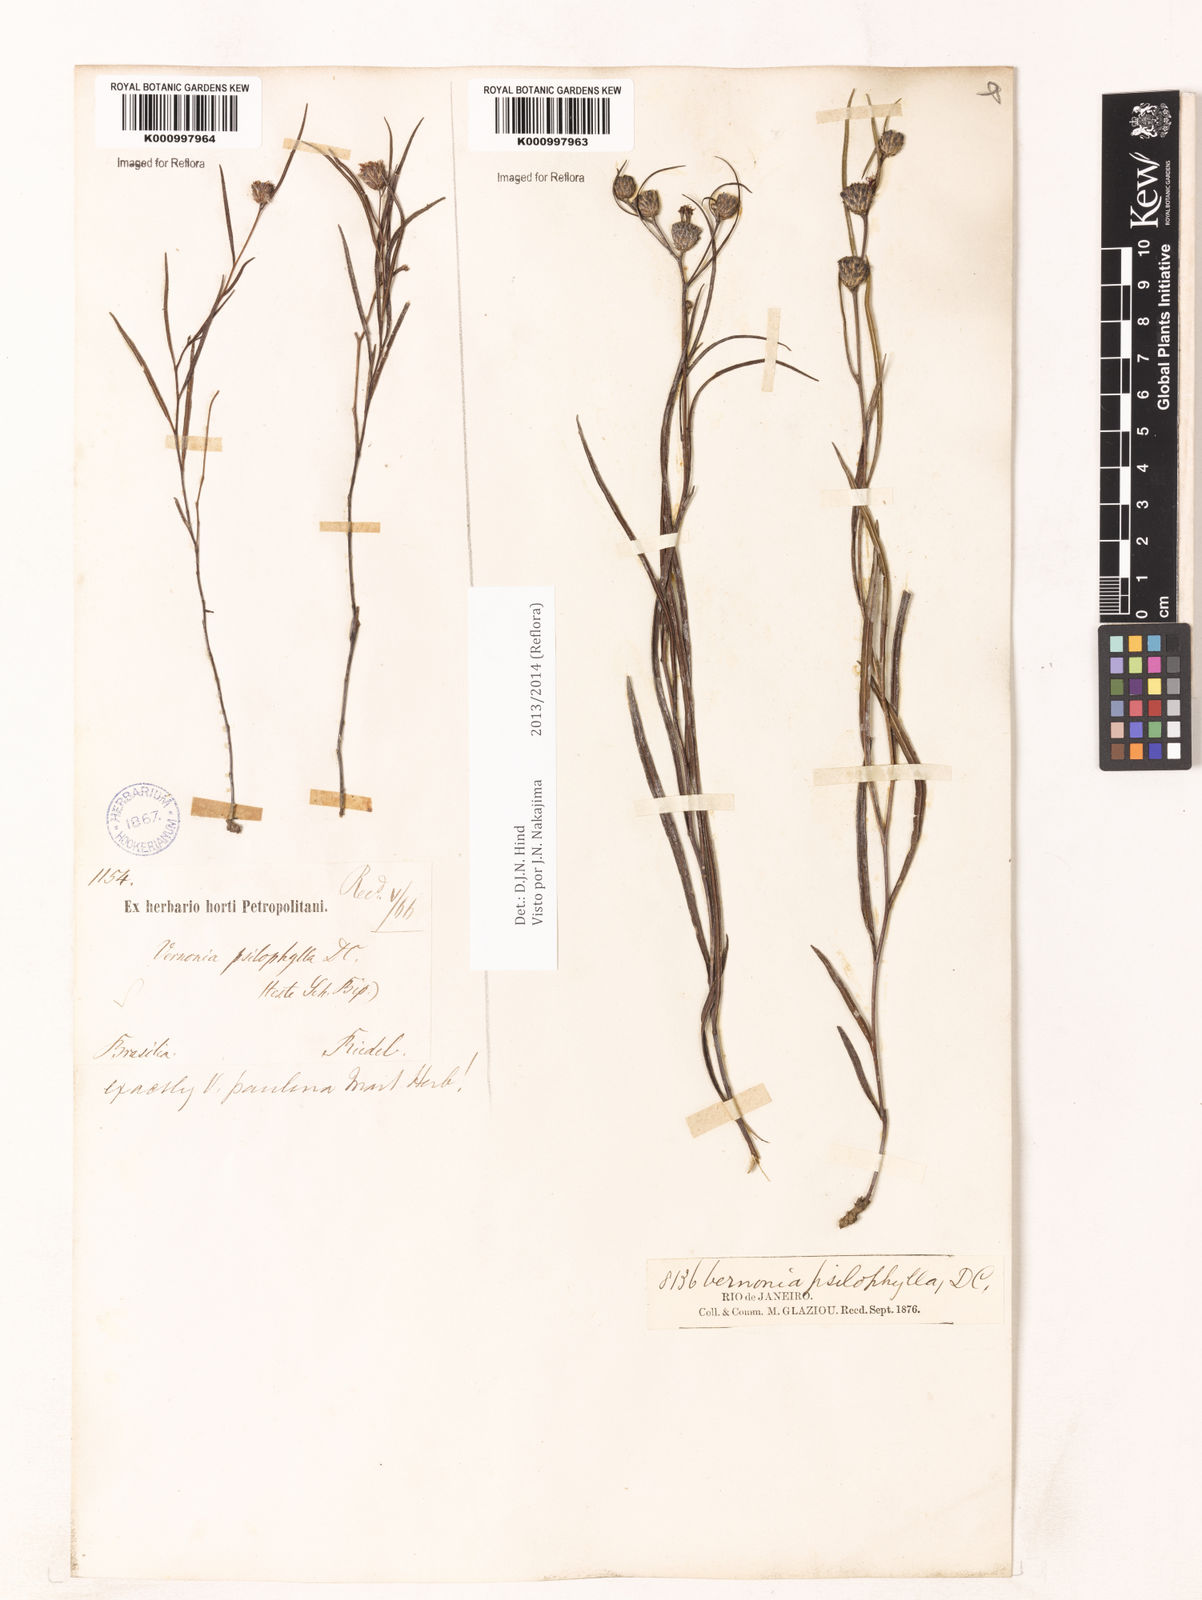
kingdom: Plantae
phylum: Tracheophyta
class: Magnoliopsida
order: Asterales
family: Asteraceae
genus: Lessingianthus
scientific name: Lessingianthus psilophyllus
